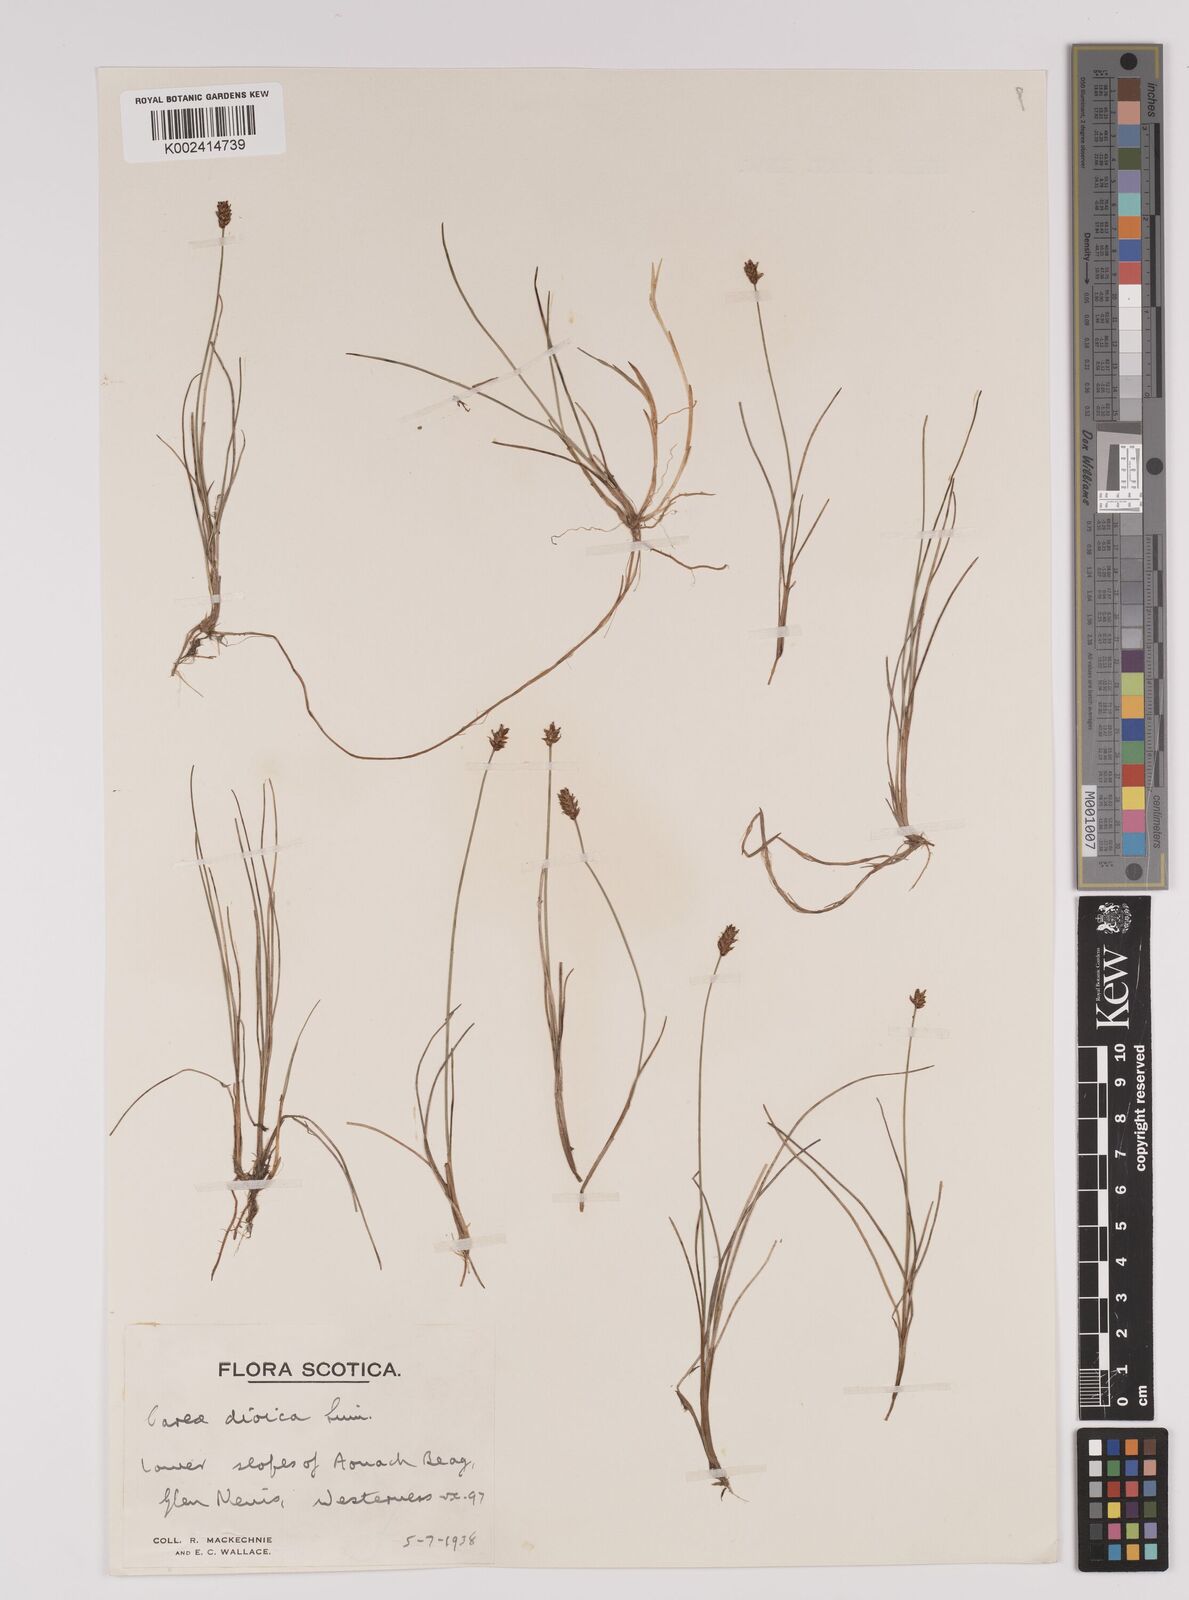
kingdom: Plantae
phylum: Tracheophyta
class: Liliopsida
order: Poales
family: Cyperaceae
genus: Carex
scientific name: Carex dioica
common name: Dioecious sedge
